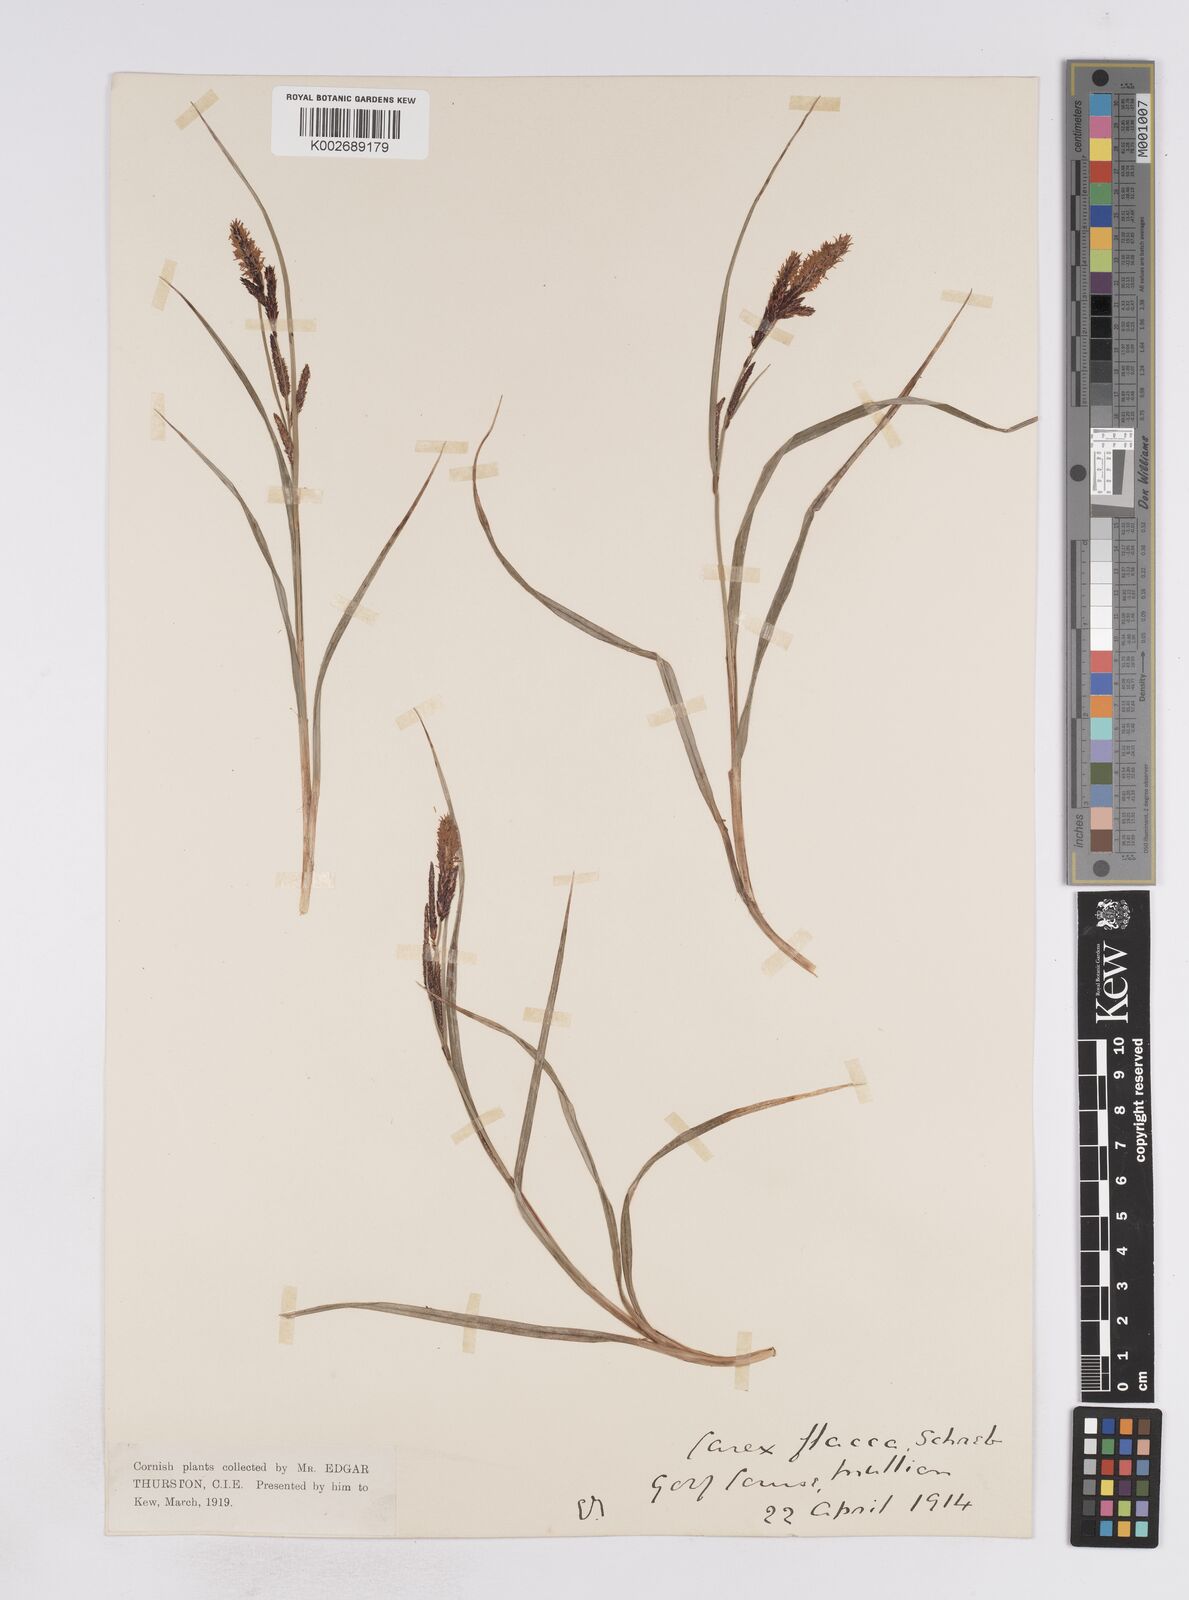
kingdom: Plantae
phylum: Tracheophyta
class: Liliopsida
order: Poales
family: Cyperaceae
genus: Carex
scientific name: Carex flacca
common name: Glaucous sedge
